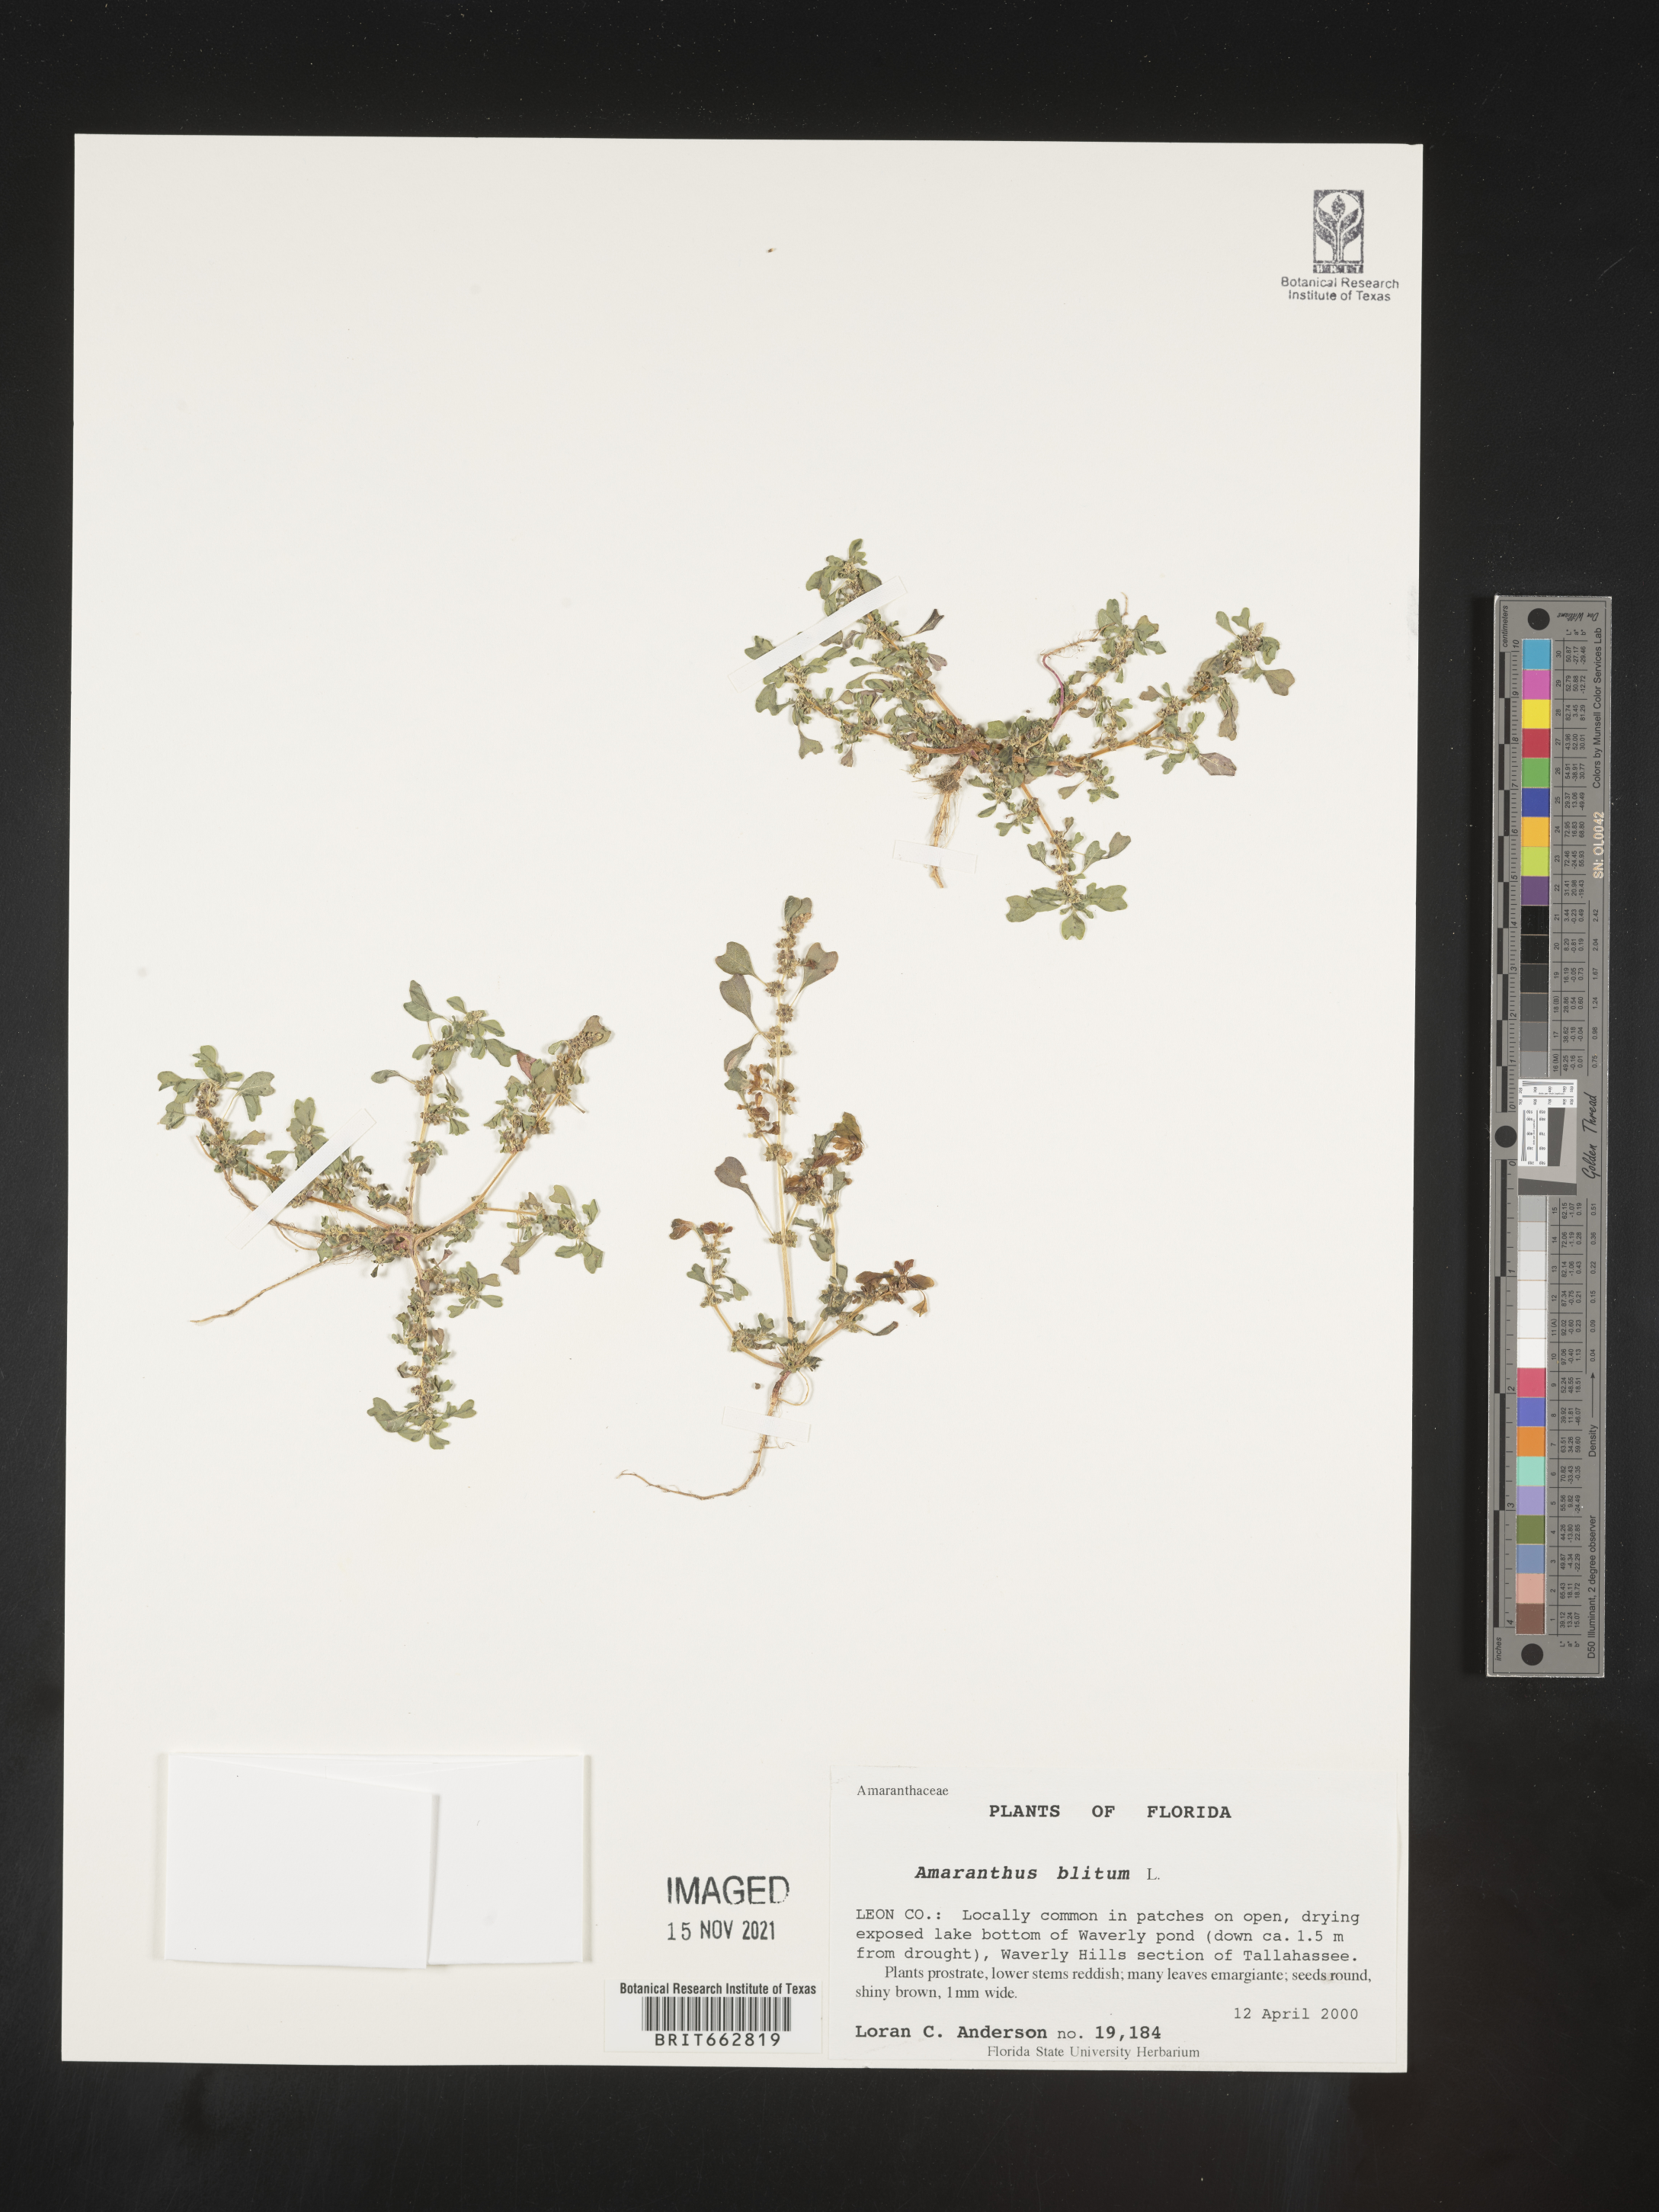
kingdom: Plantae
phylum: Tracheophyta
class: Magnoliopsida
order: Caryophyllales
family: Amaranthaceae
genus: Amaranthus
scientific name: Amaranthus blitum
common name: Purple amaranth
